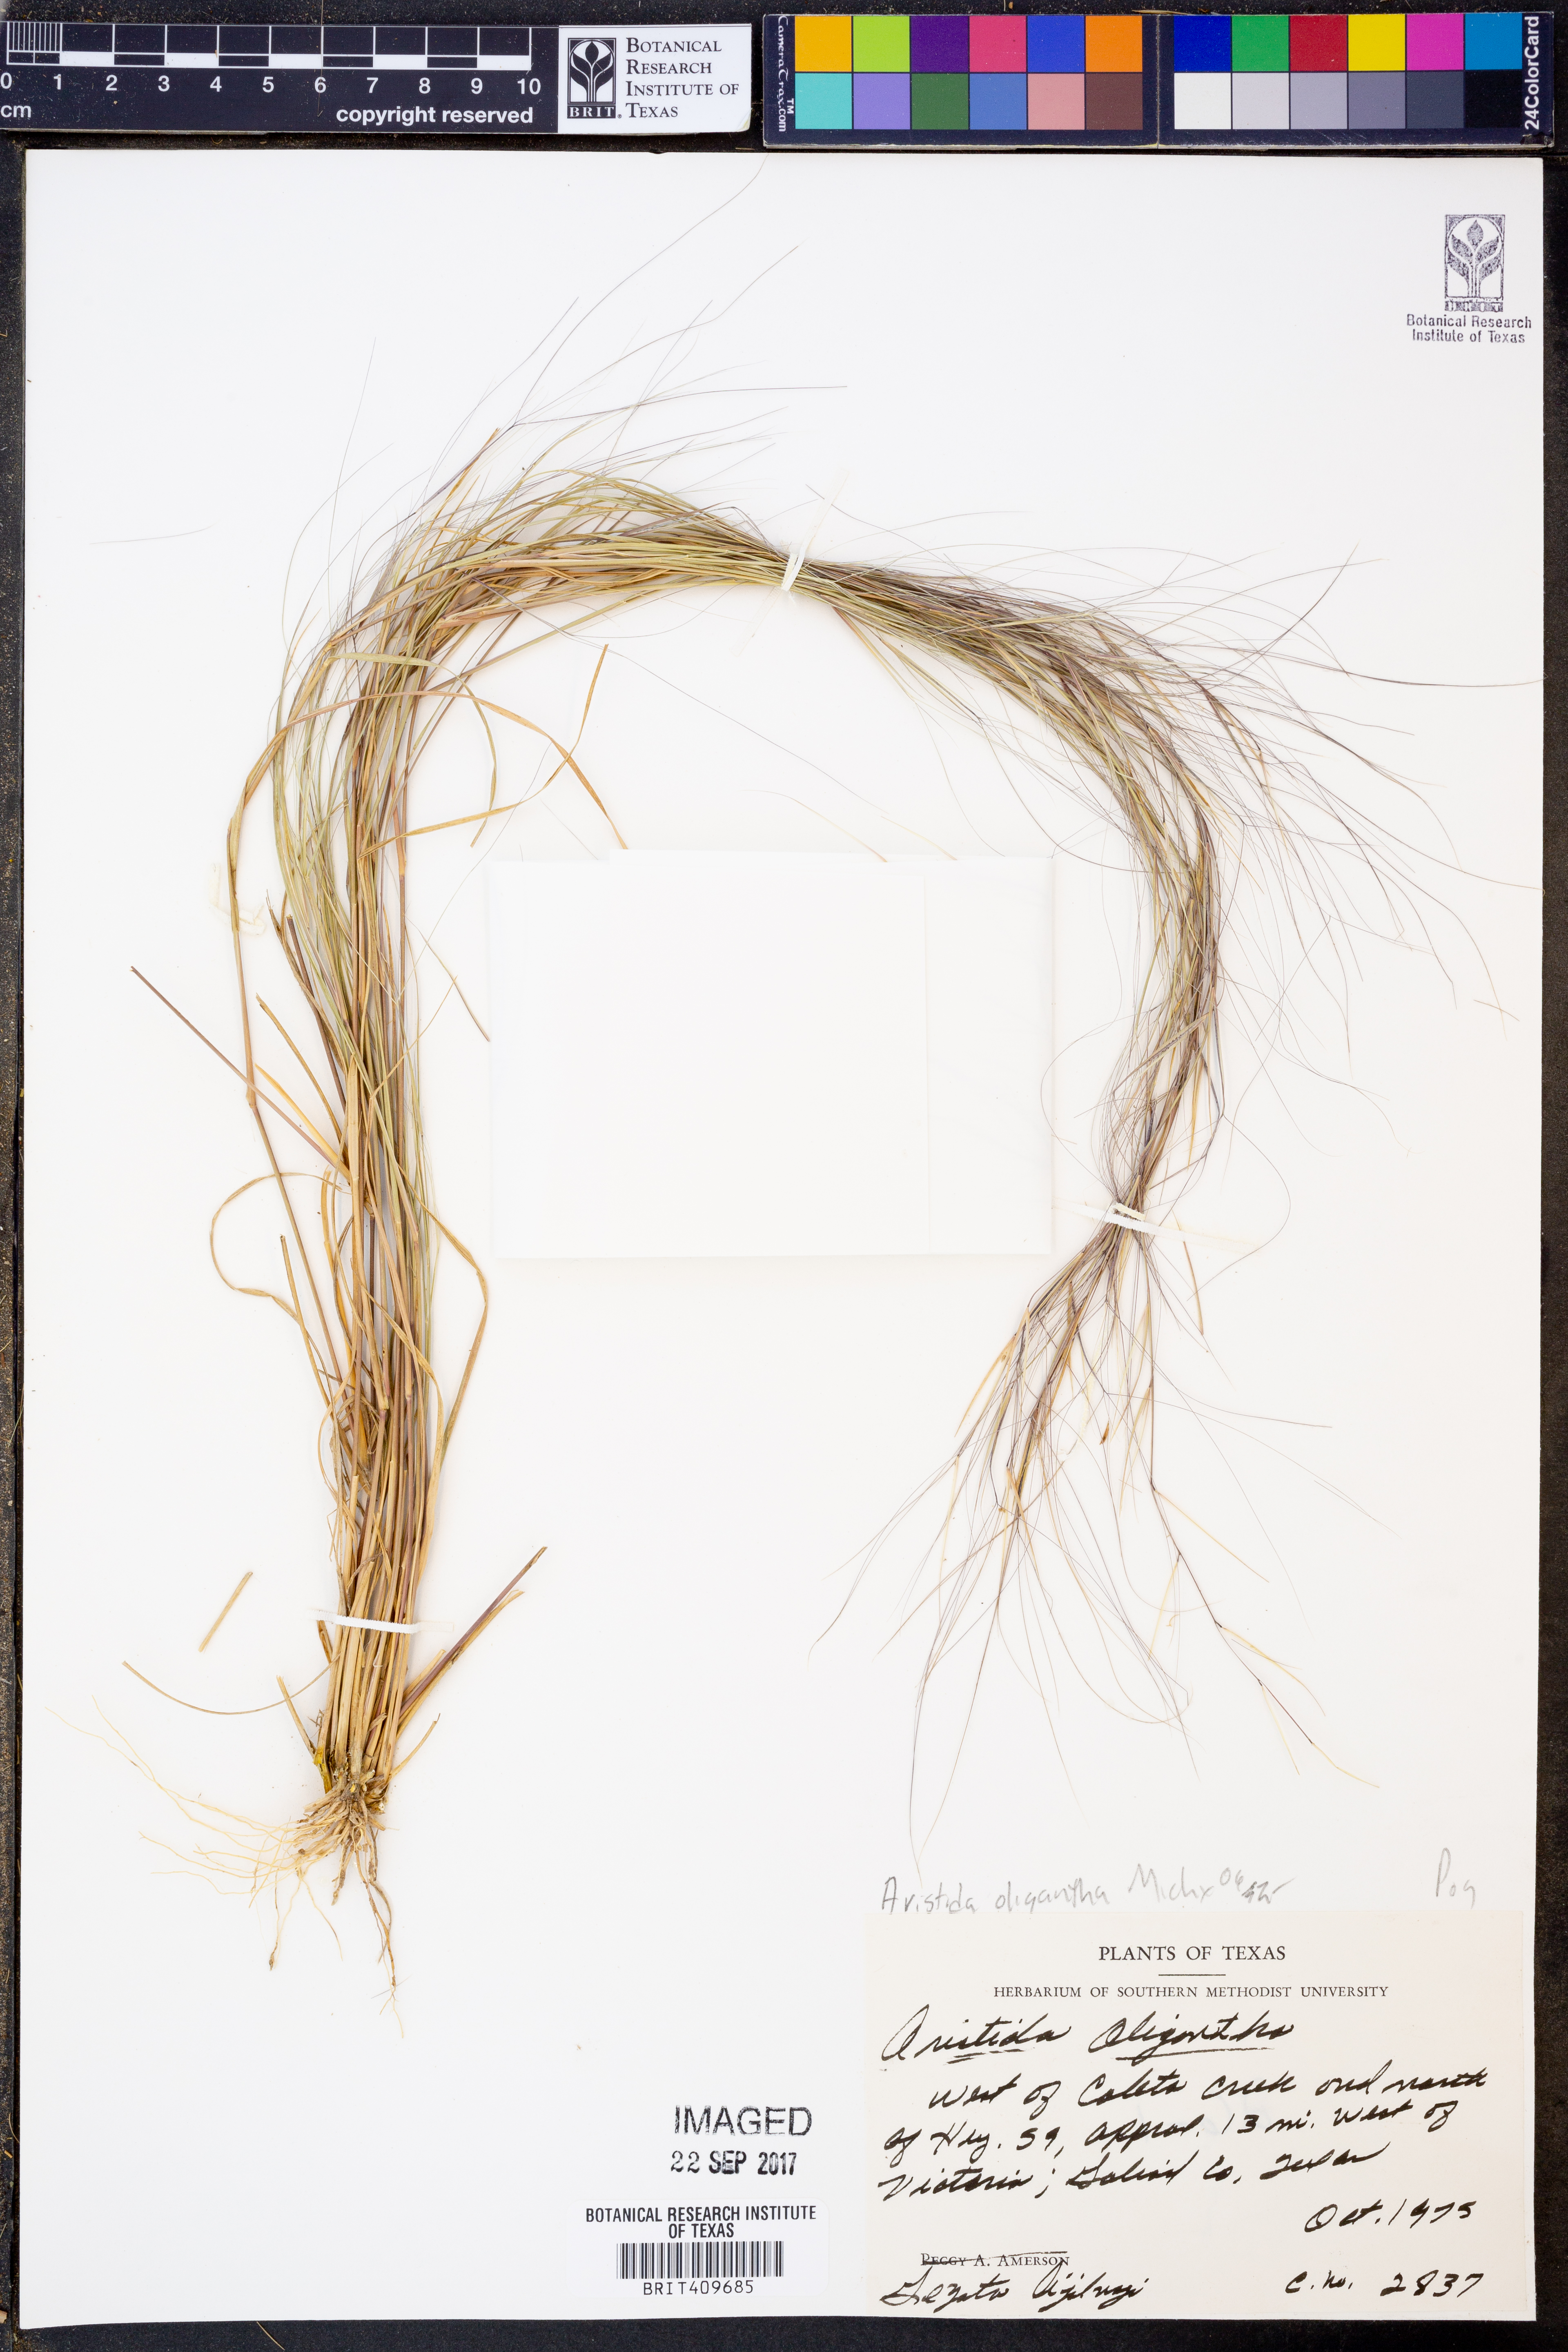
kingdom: Plantae
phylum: Tracheophyta
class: Liliopsida
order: Poales
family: Poaceae
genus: Aristida
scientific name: Aristida oligantha
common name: Few-flowered aristida
